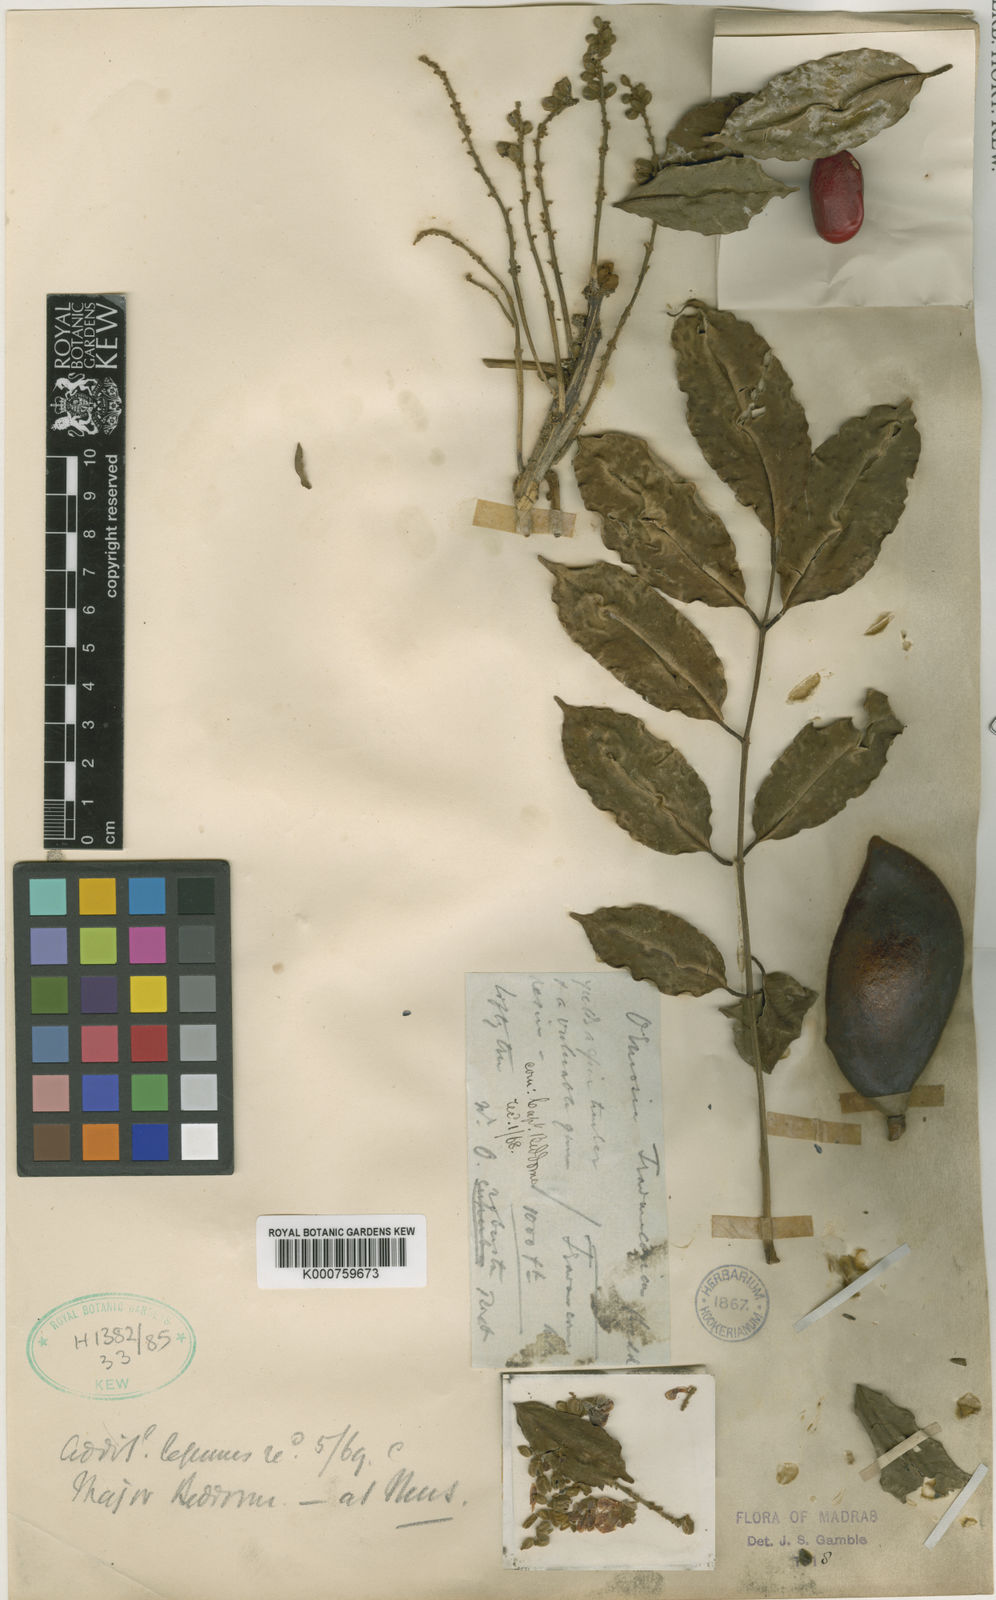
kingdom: Plantae
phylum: Tracheophyta
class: Magnoliopsida
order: Fabales
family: Fabaceae
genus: Ormosia
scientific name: Ormosia travancorica
